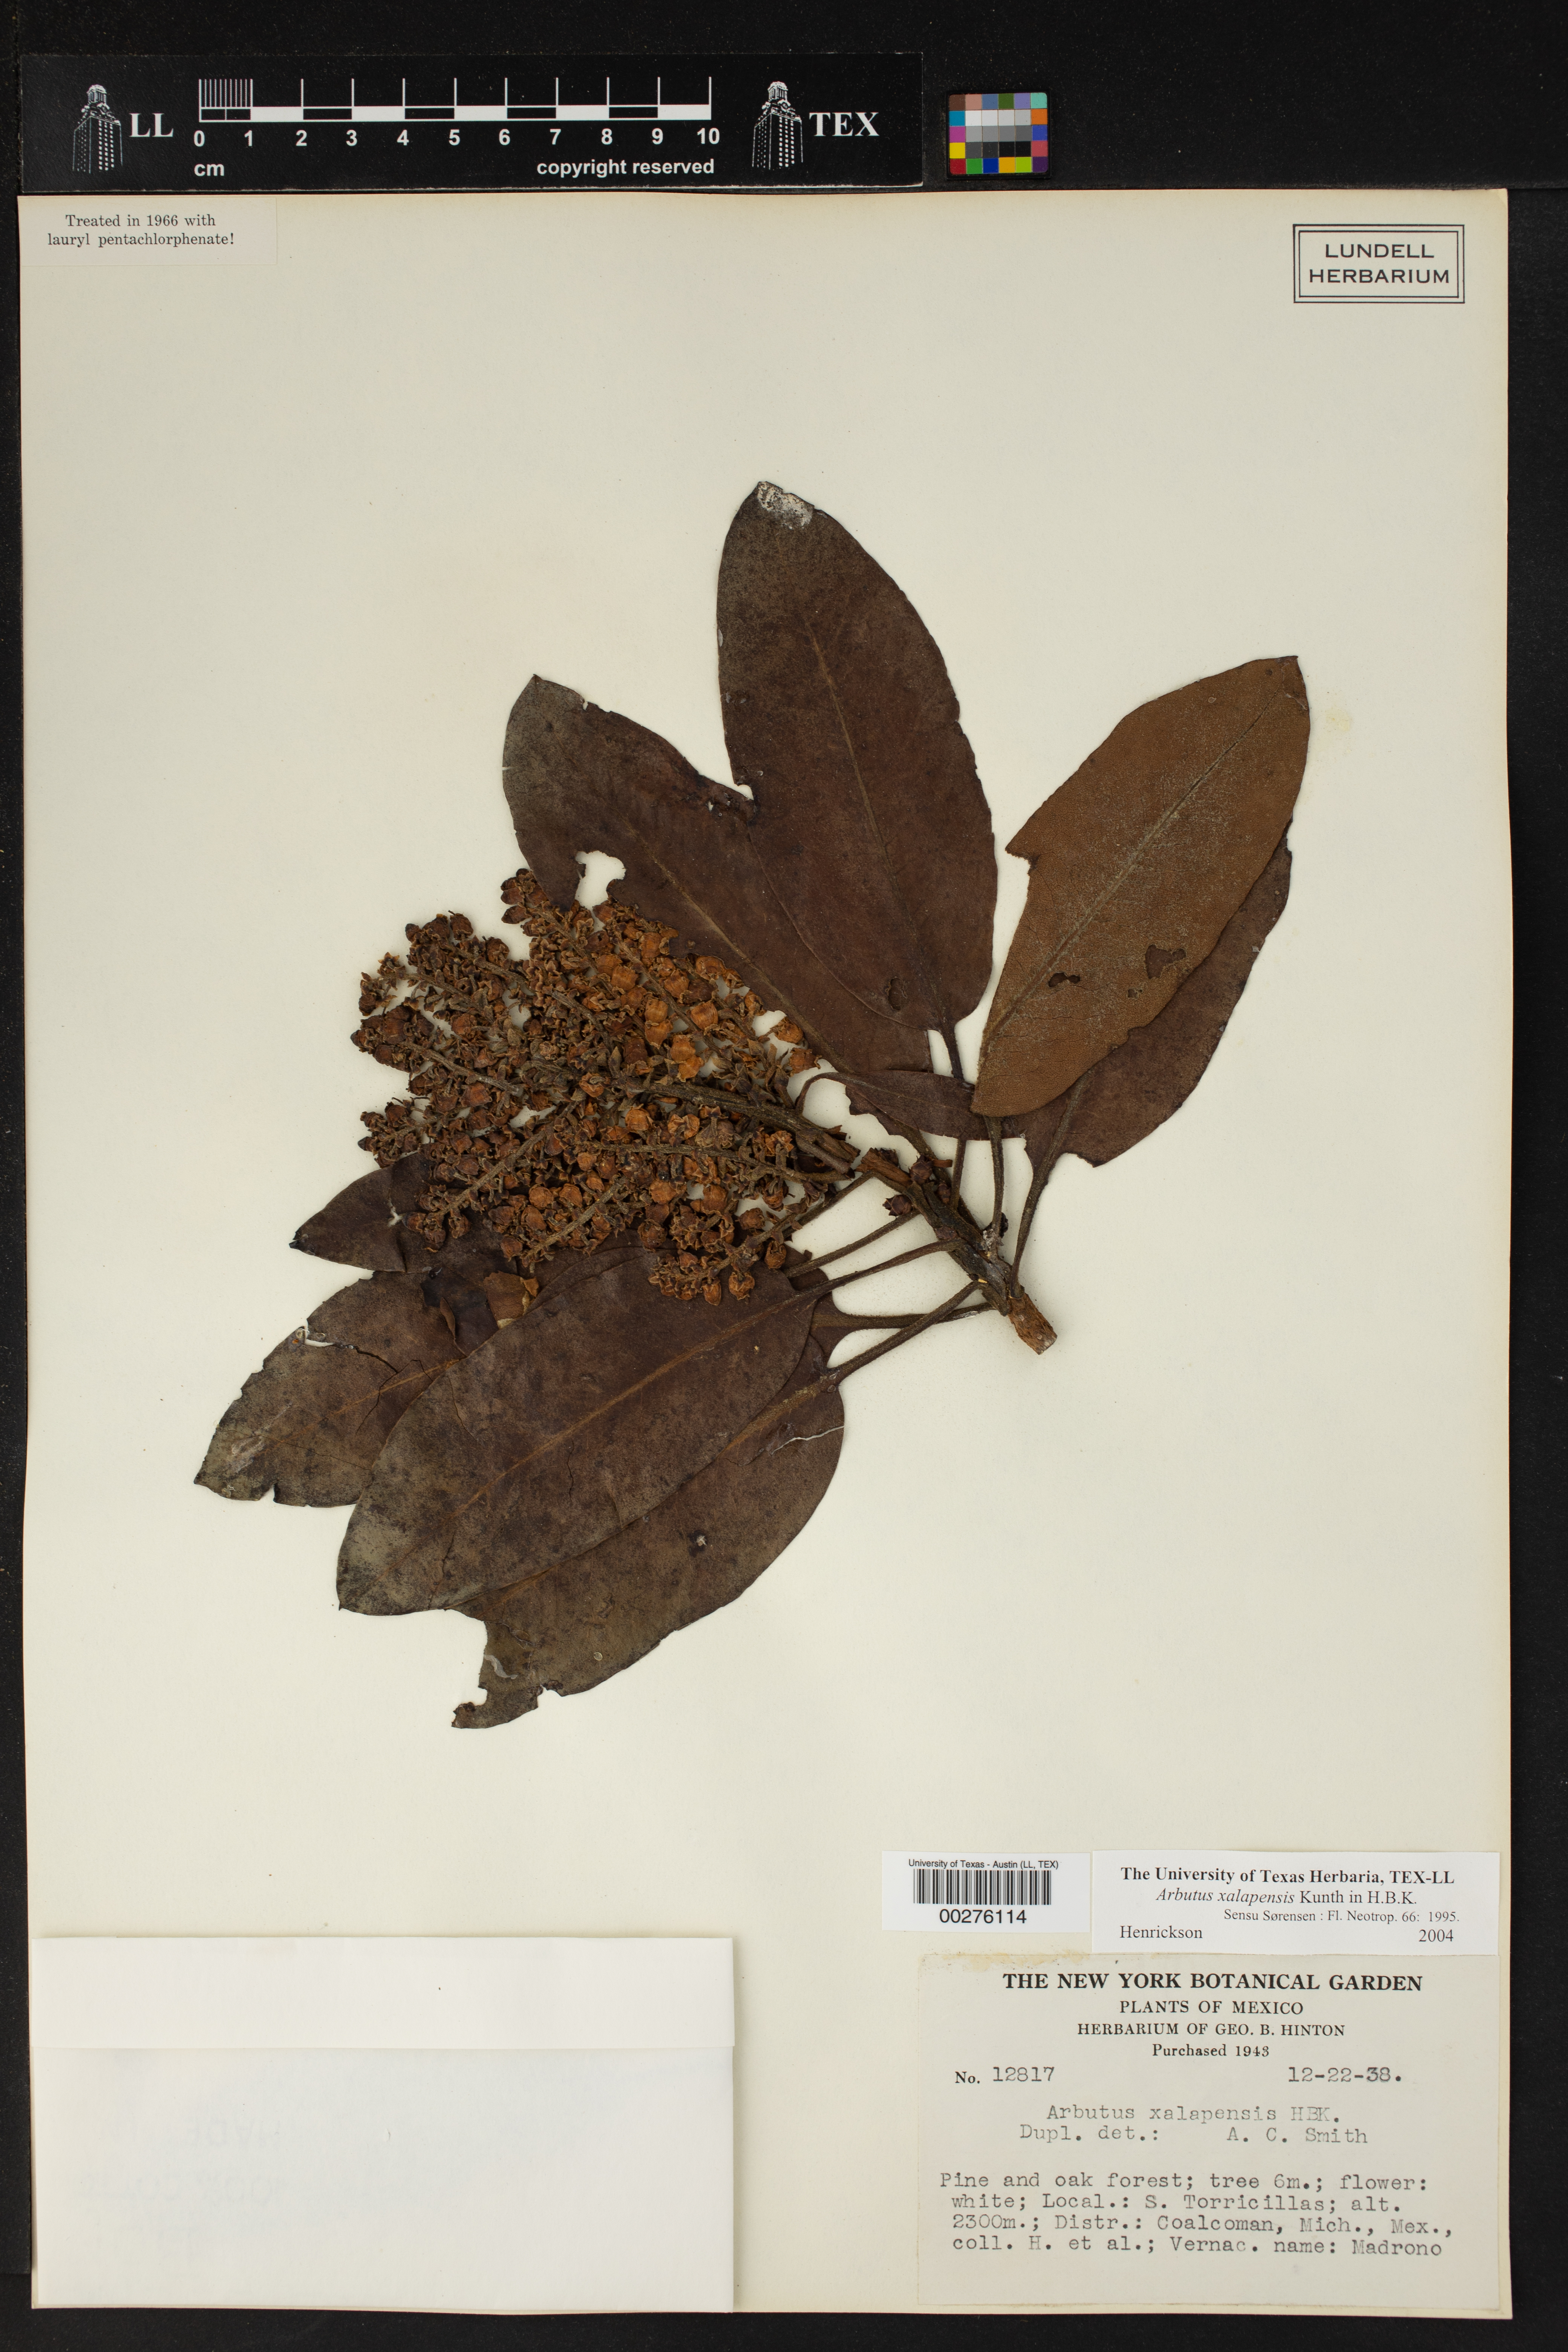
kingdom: Plantae
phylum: Tracheophyta
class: Magnoliopsida
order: Ericales
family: Ericaceae
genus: Arbutus
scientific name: Arbutus xalapensis
